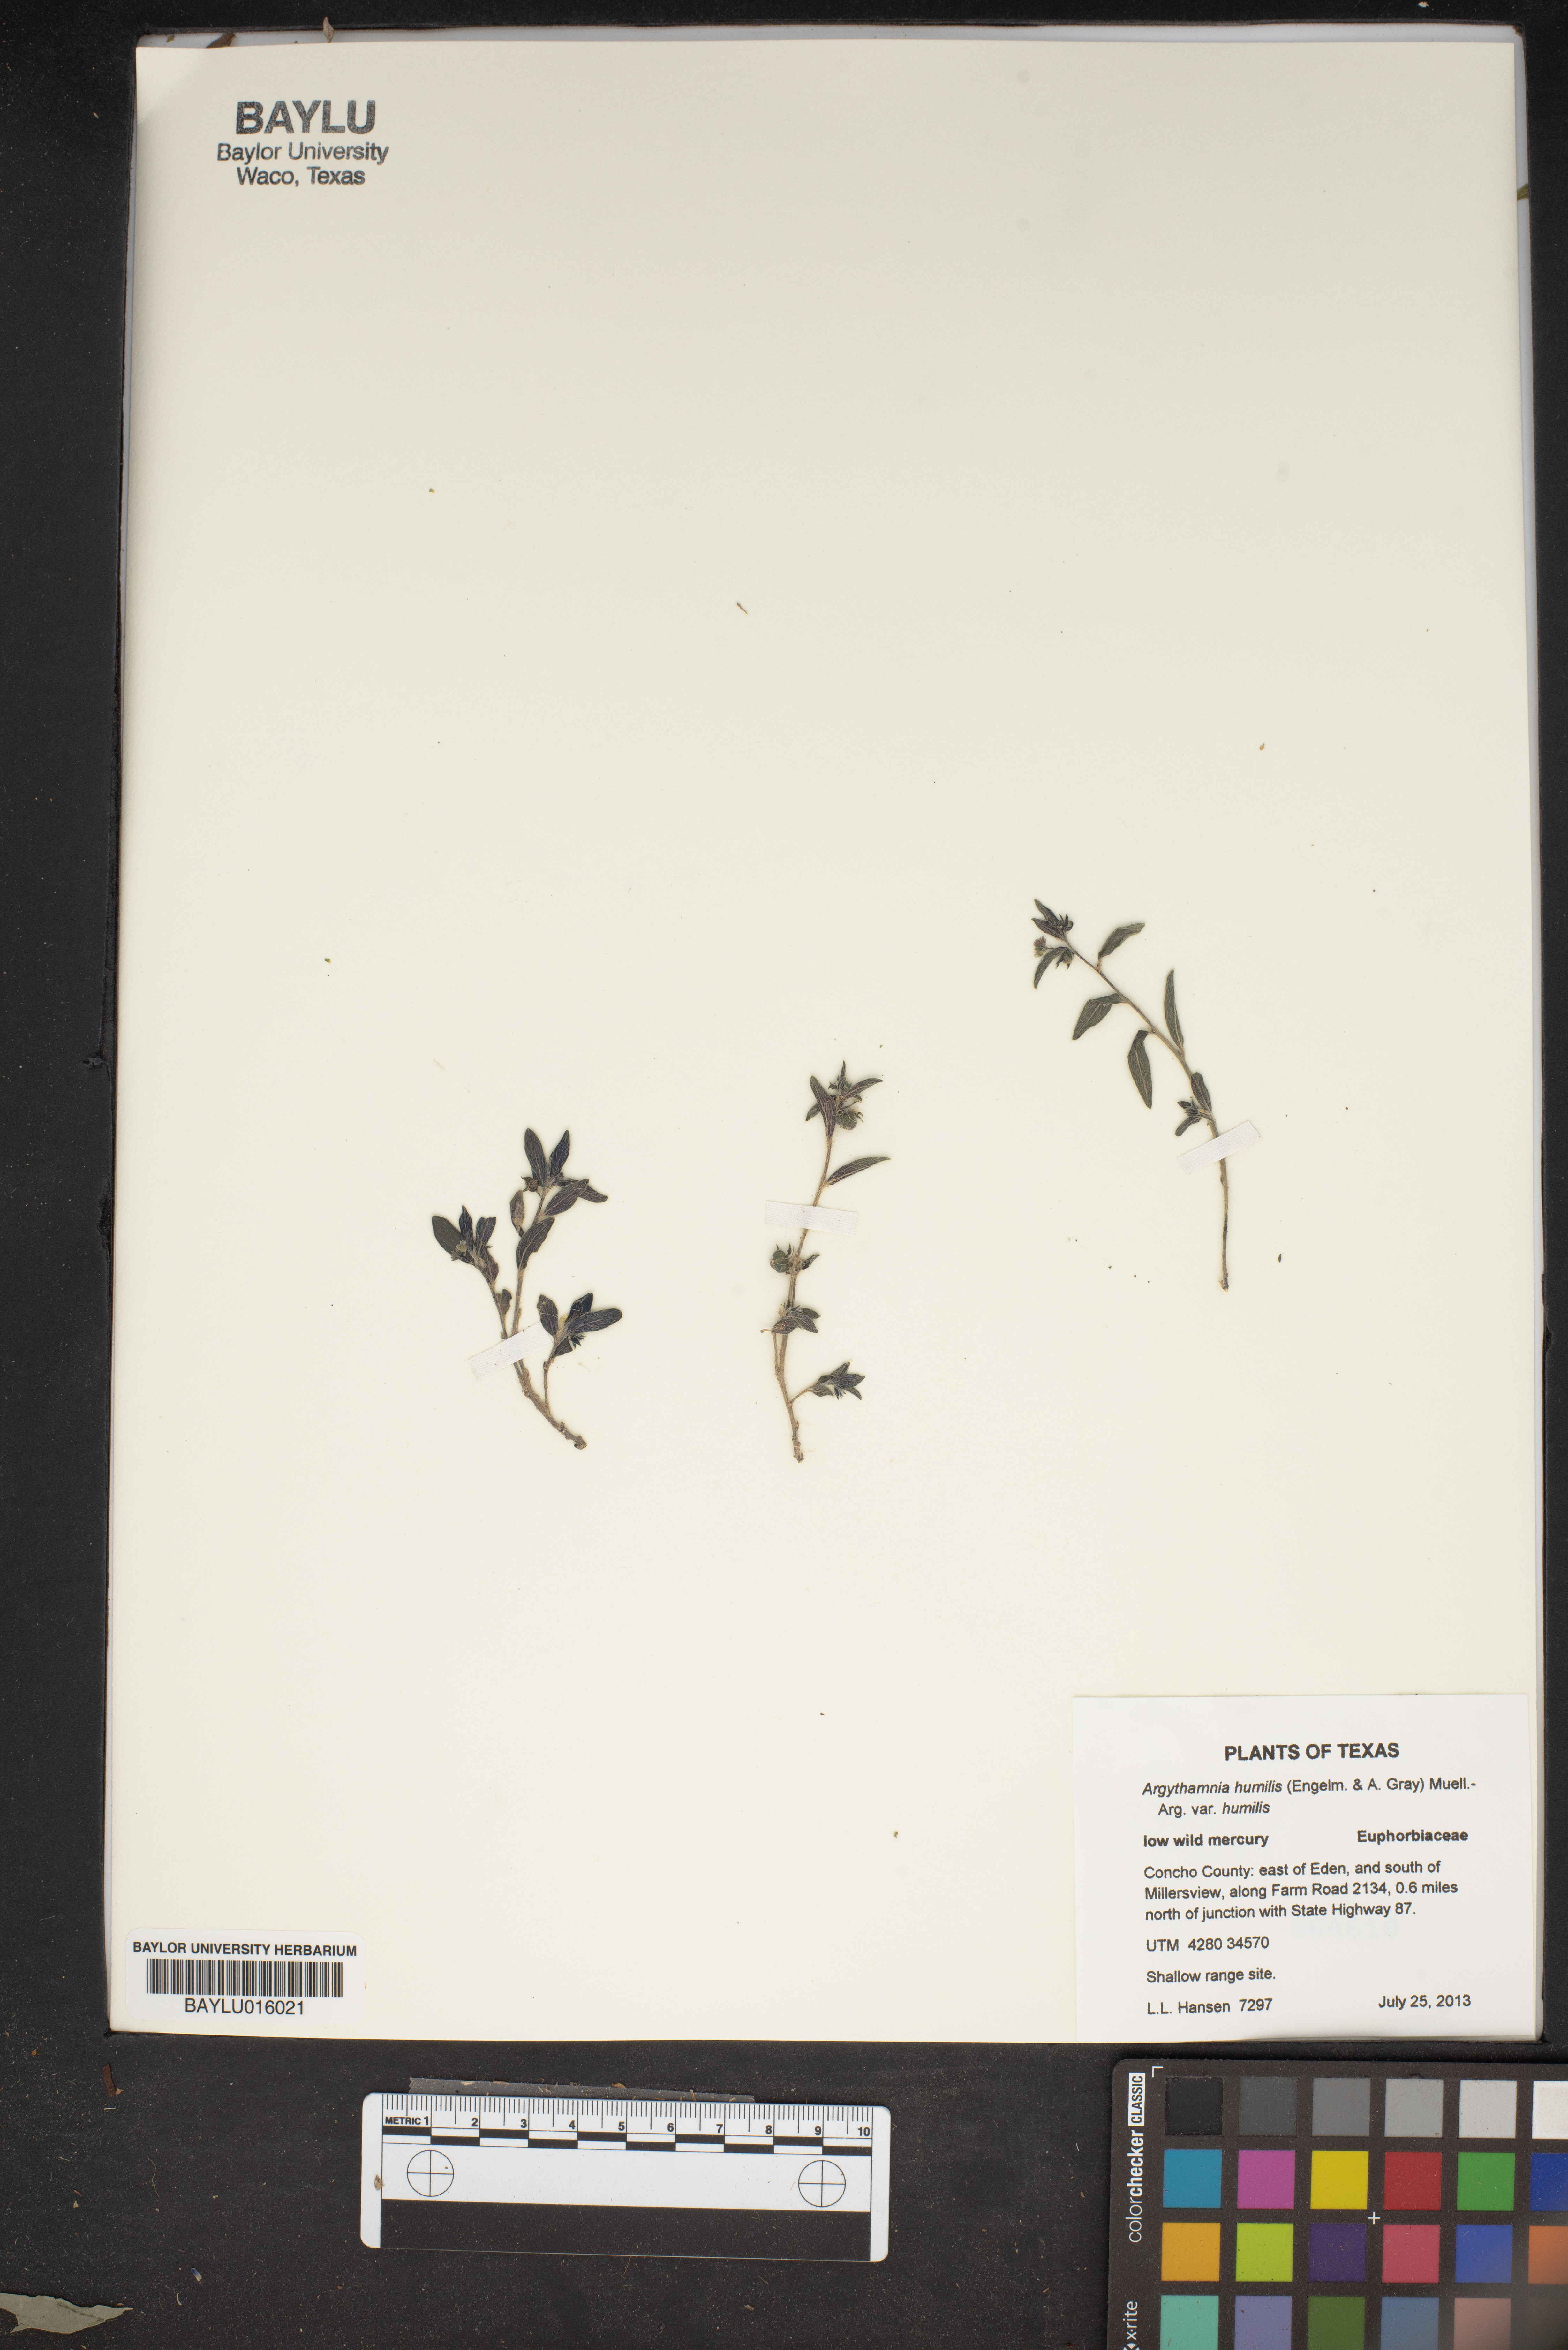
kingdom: Plantae
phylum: Tracheophyta
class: Magnoliopsida
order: Malpighiales
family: Euphorbiaceae
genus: Ditaxis
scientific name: Ditaxis humilis
